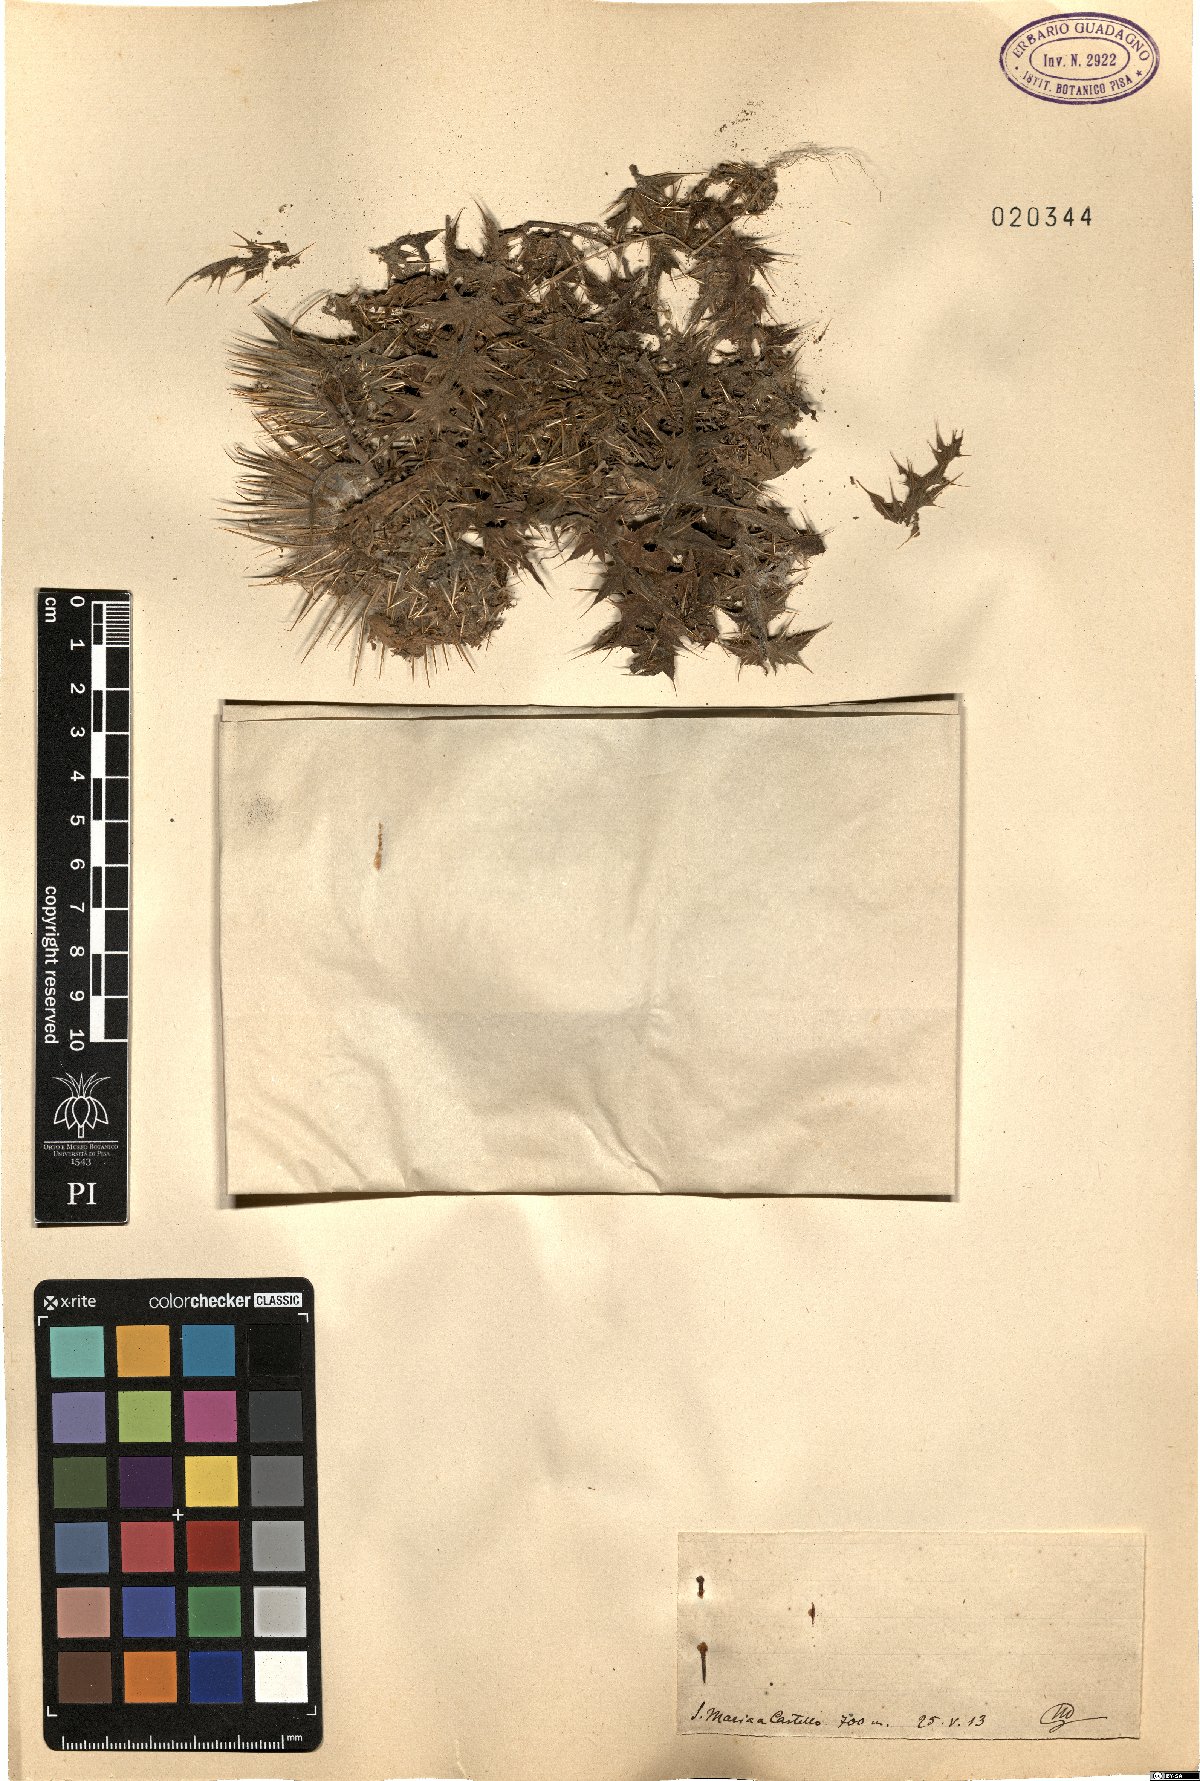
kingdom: Plantae
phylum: Tracheophyta
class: Magnoliopsida
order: Asterales
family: Asteraceae
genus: Carduus
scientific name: Carduus
